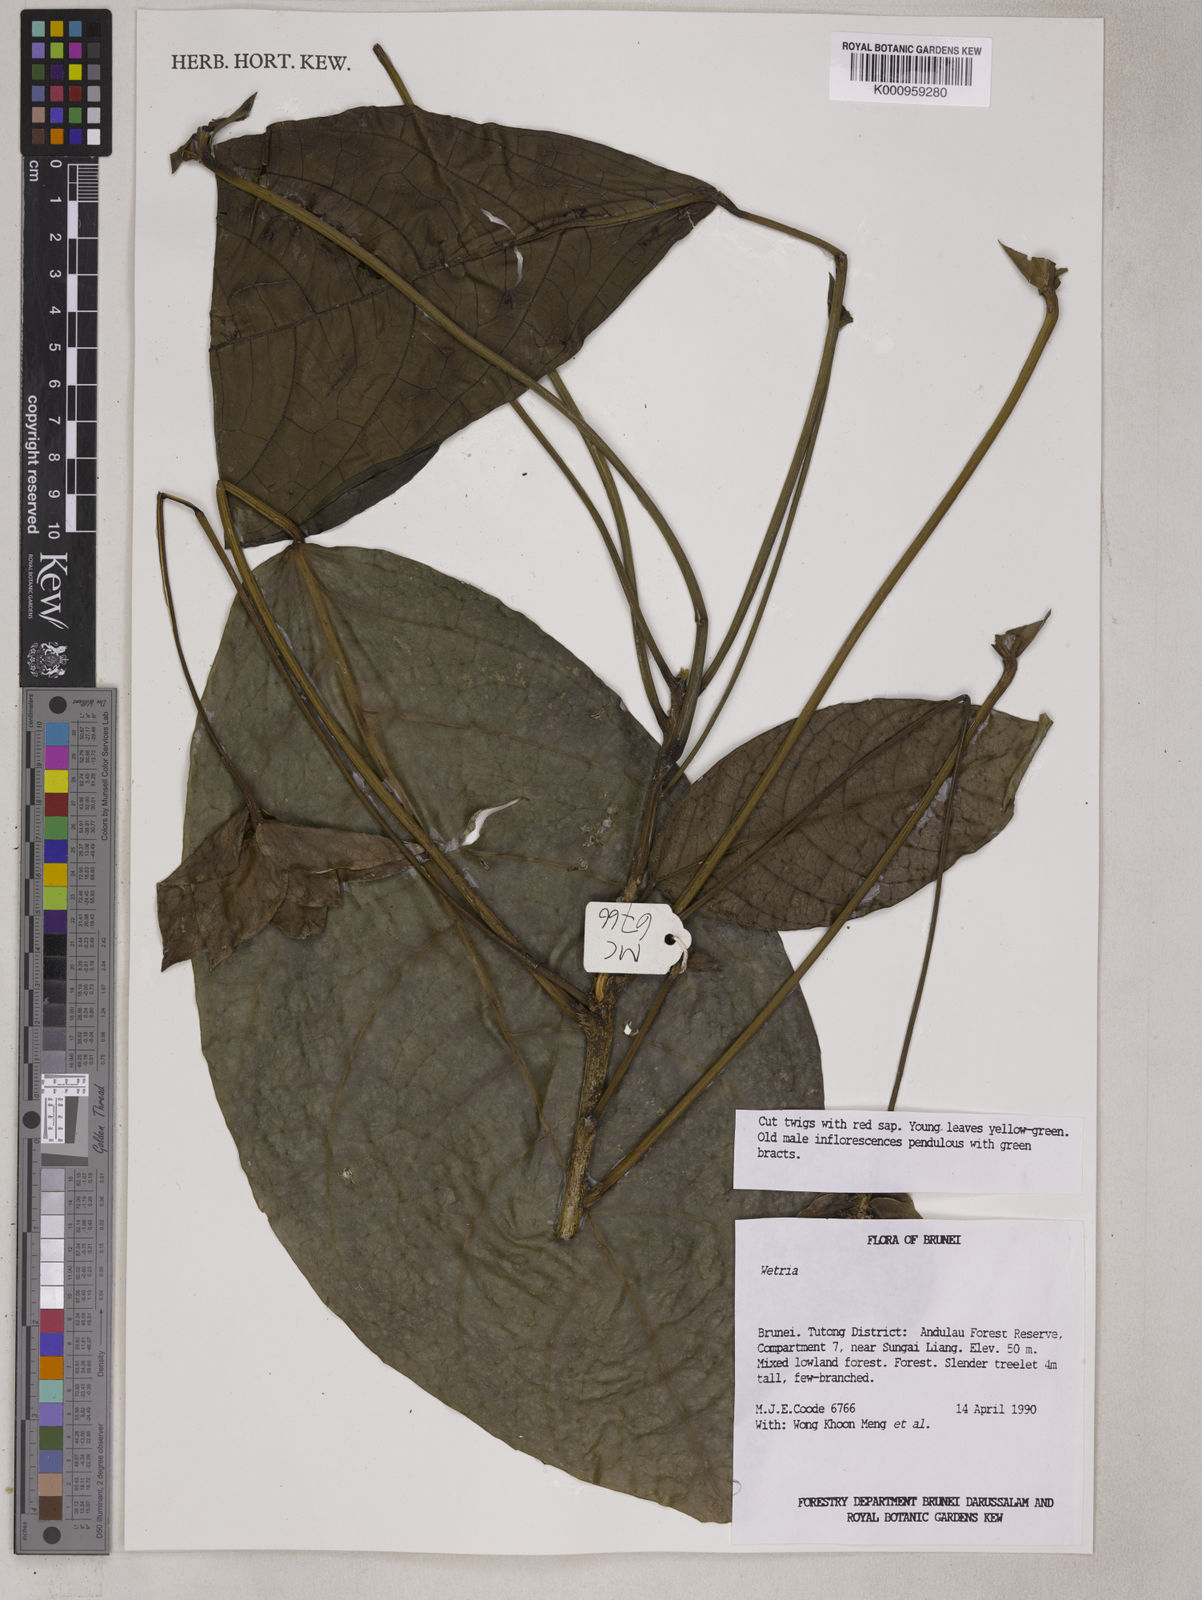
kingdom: Plantae
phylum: Tracheophyta
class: Magnoliopsida
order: Malpighiales
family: Euphorbiaceae
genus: Trigonostemon
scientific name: Trigonostemon lychnos
